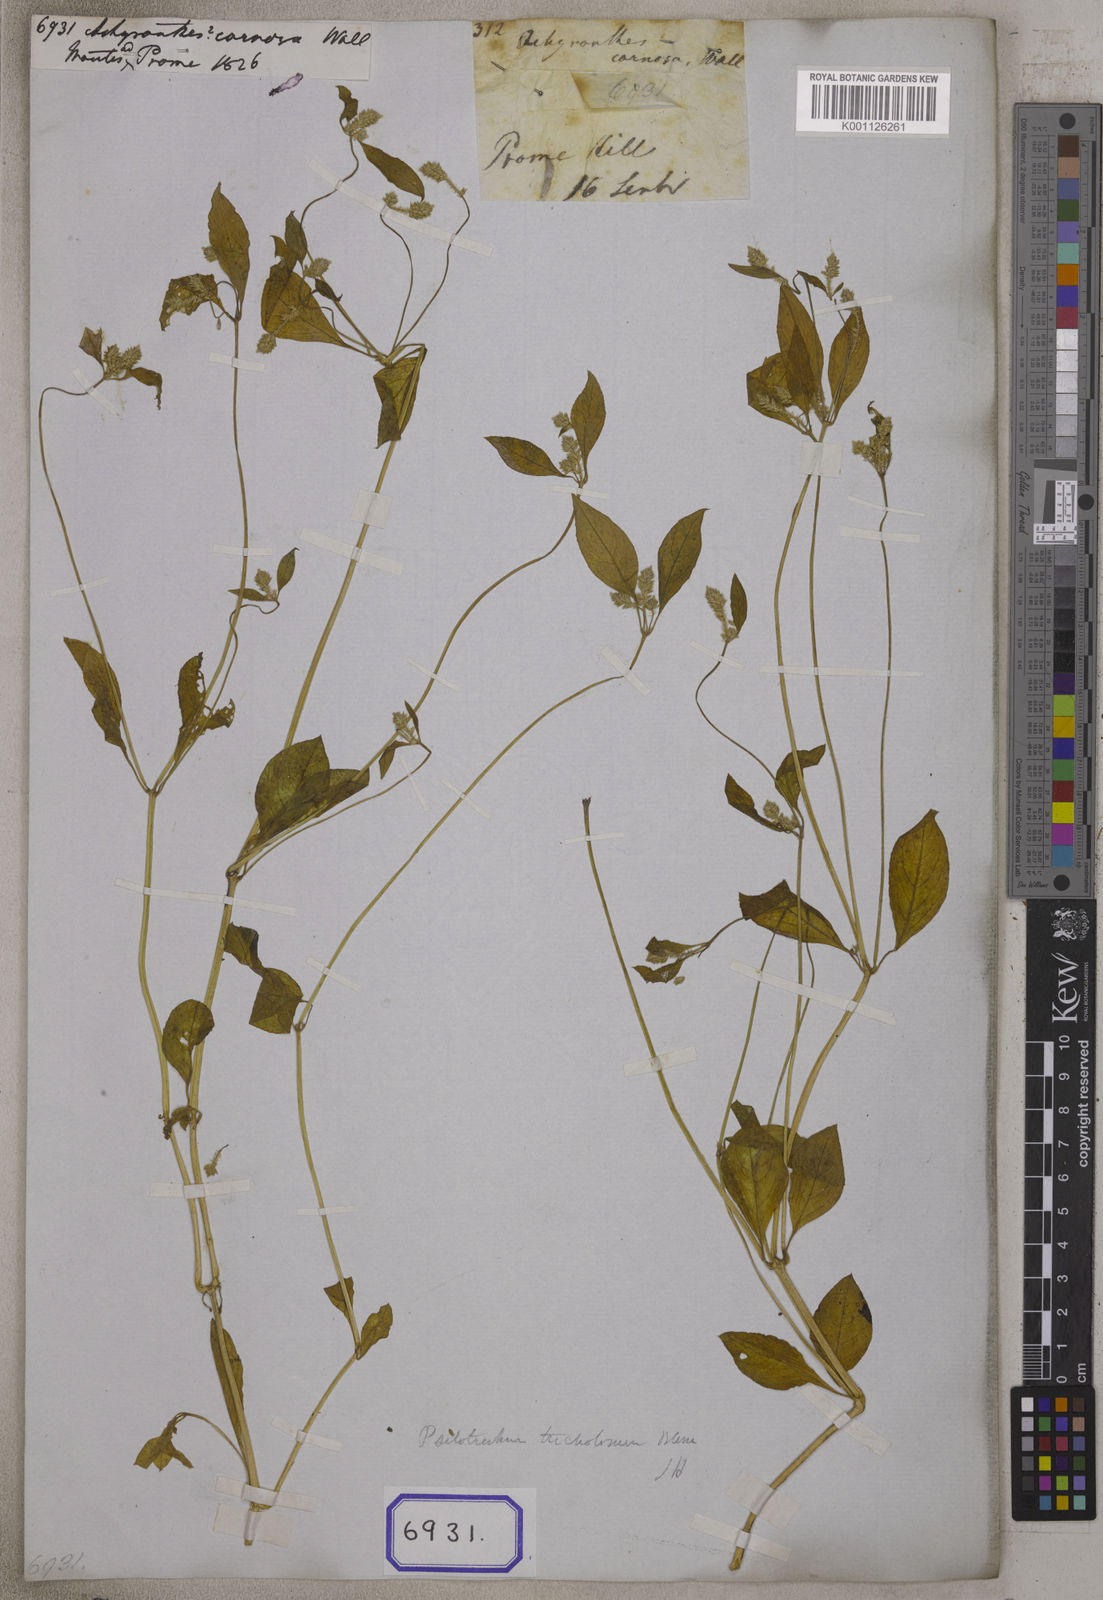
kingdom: Plantae
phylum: Tracheophyta
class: Magnoliopsida
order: Caryophyllales
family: Amaranthaceae
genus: Psilotrichum
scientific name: Psilotrichum ferrugineum
